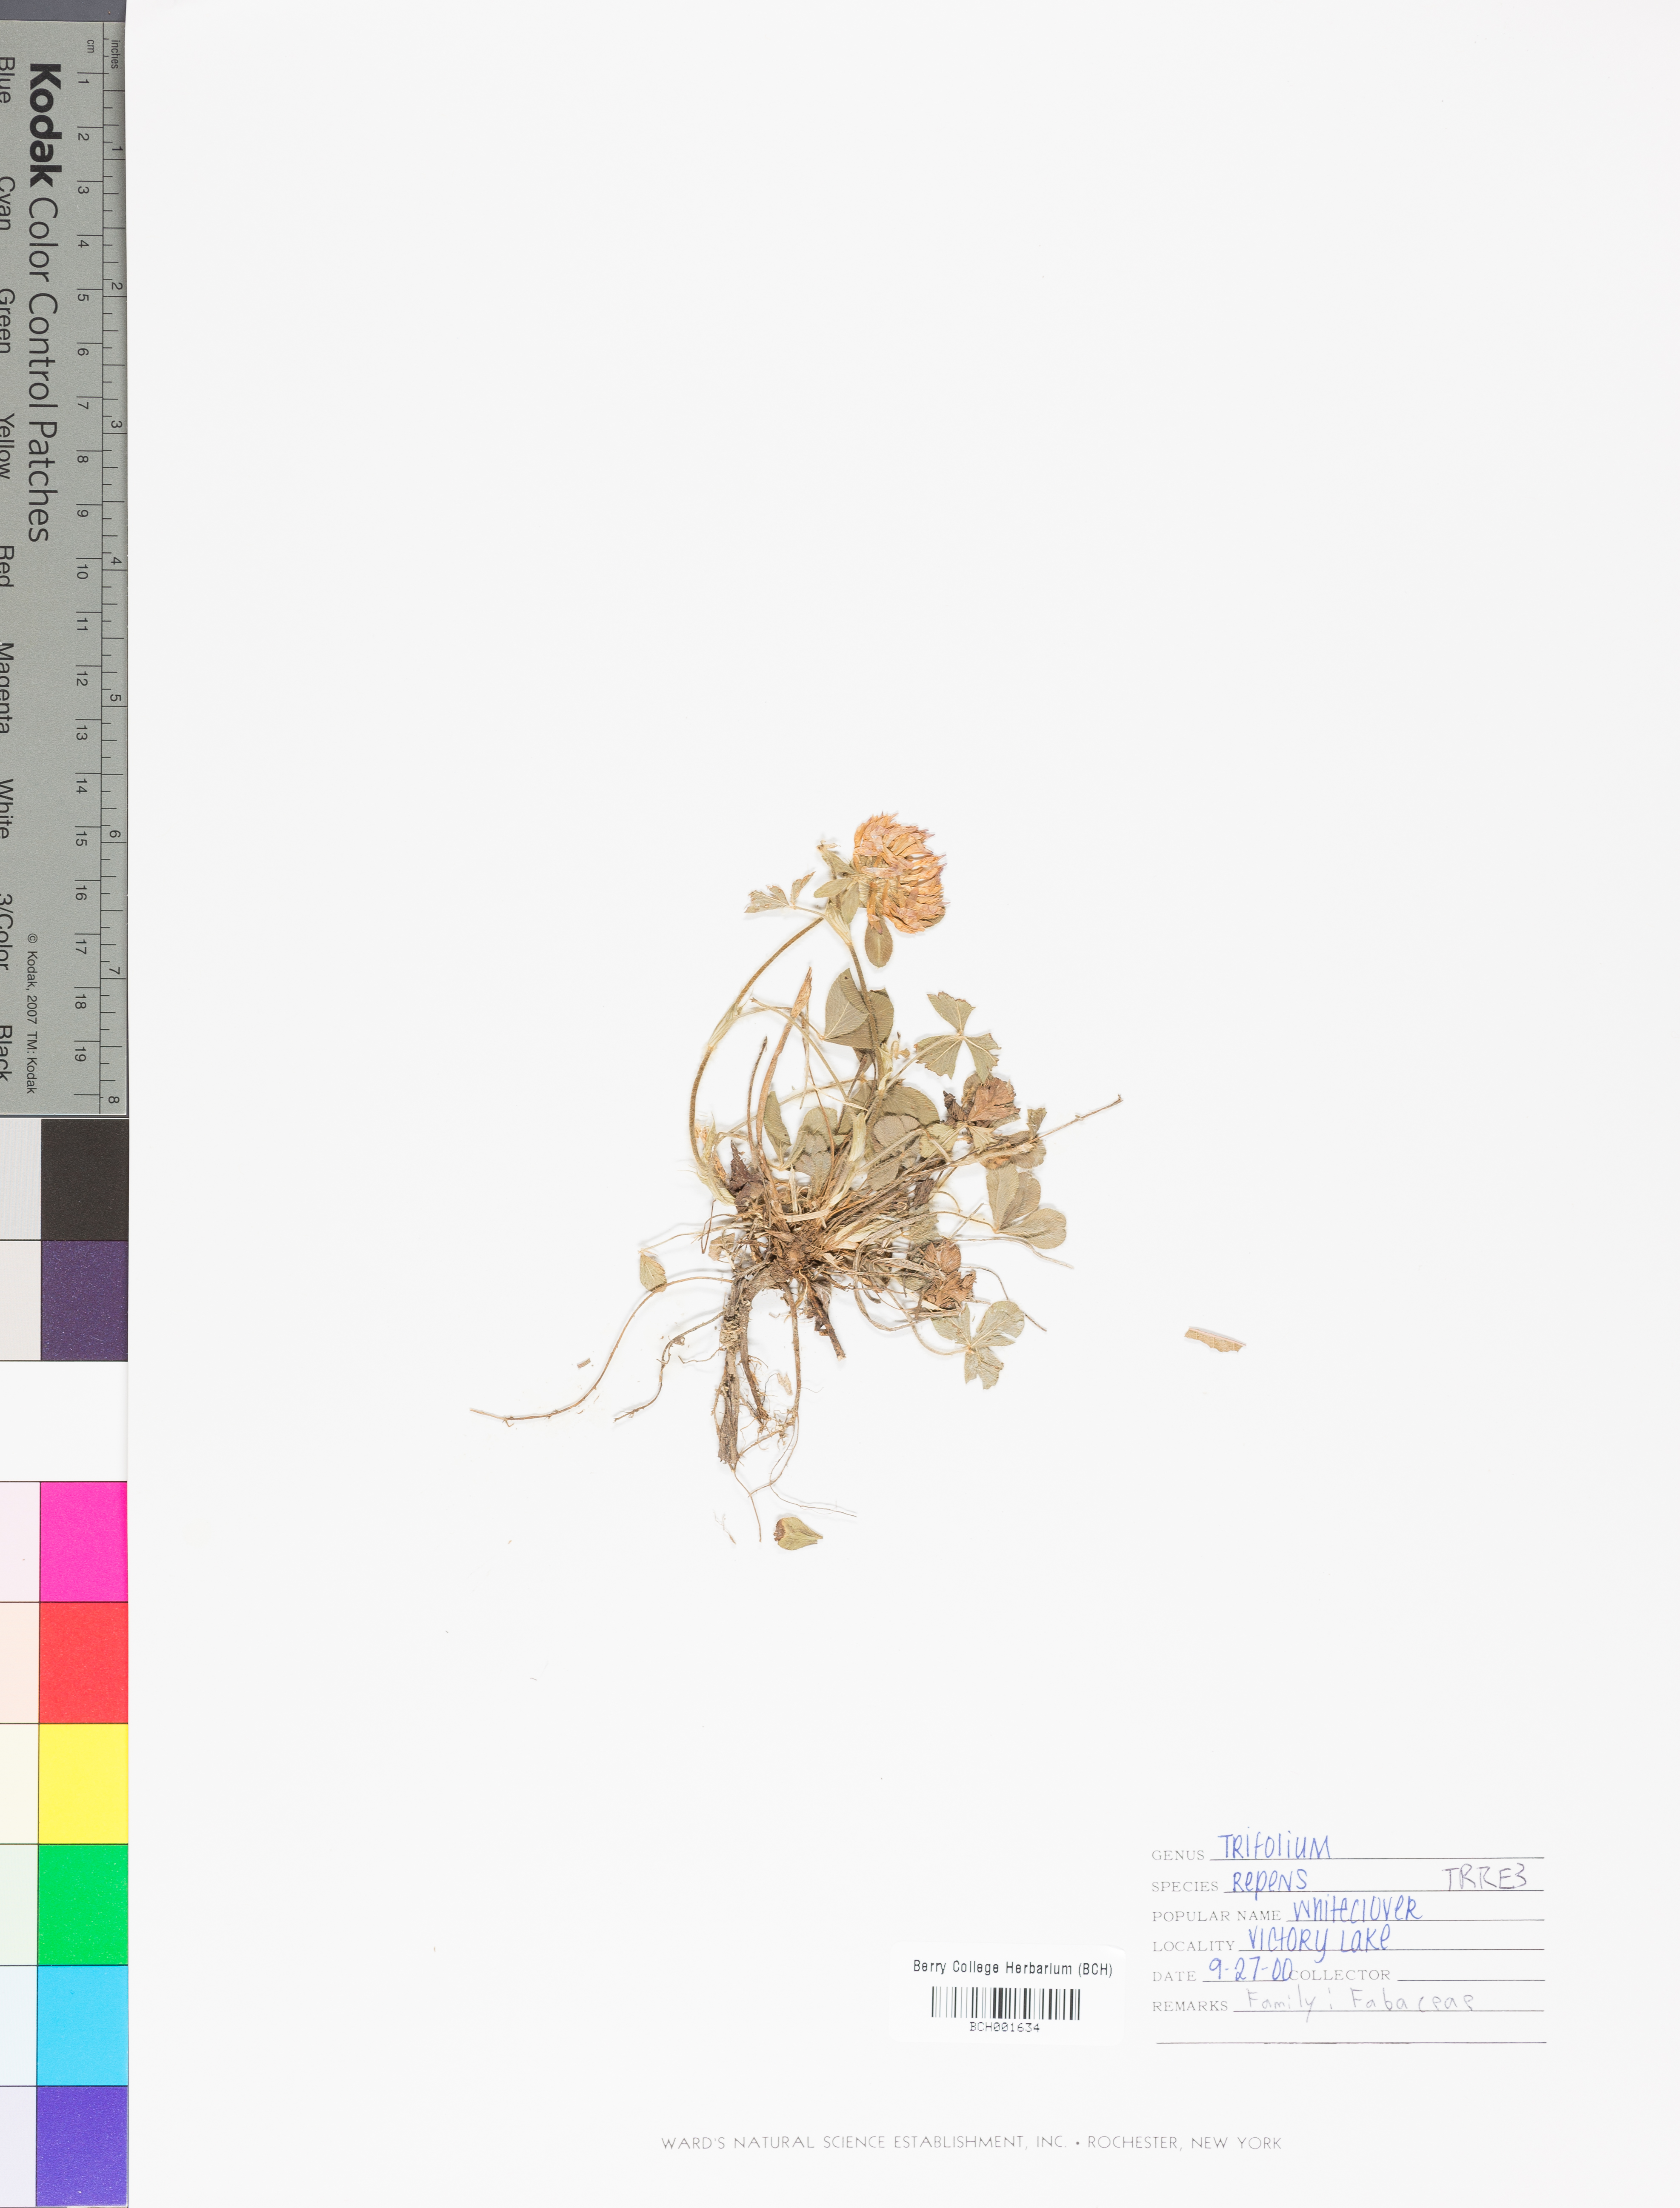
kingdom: Plantae
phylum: Tracheophyta
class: Magnoliopsida
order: Fabales
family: Fabaceae
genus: Trifolium
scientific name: Trifolium repens
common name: White clover
